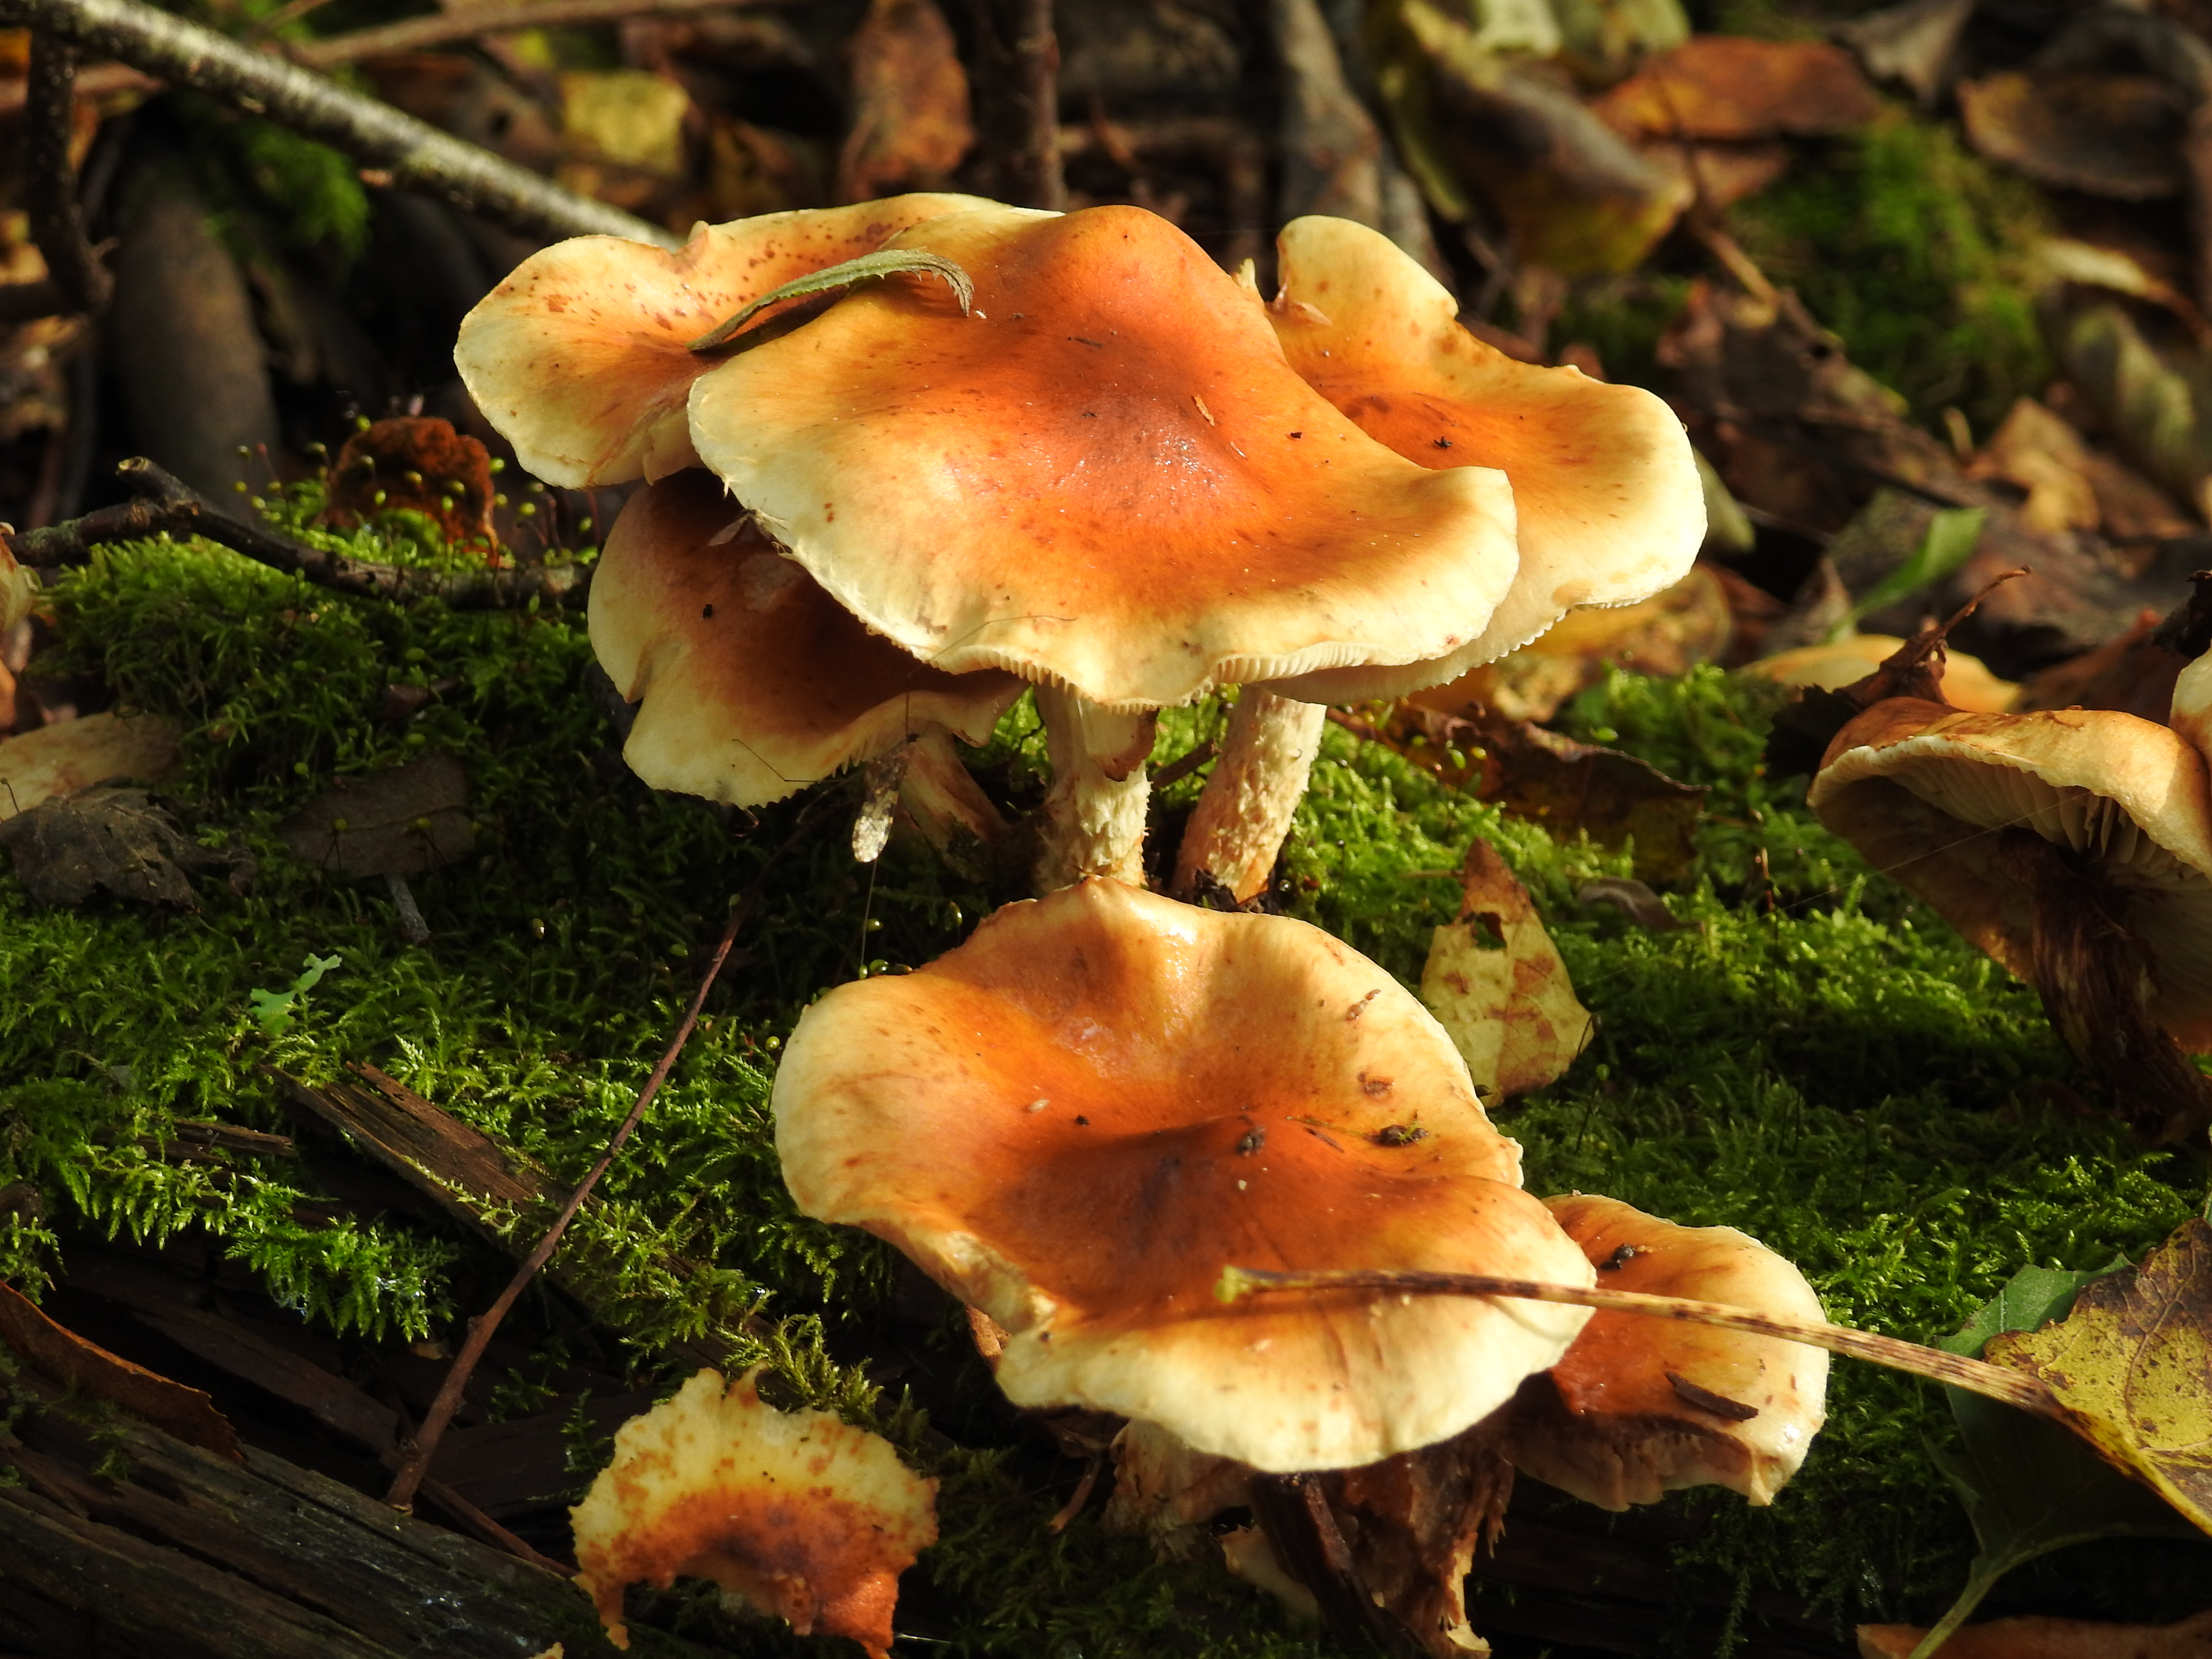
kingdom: Fungi
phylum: Basidiomycota
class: Agaricomycetes
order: Agaricales
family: Strophariaceae
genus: Pyrrhulomyces
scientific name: Pyrrhulomyces astragalinus
